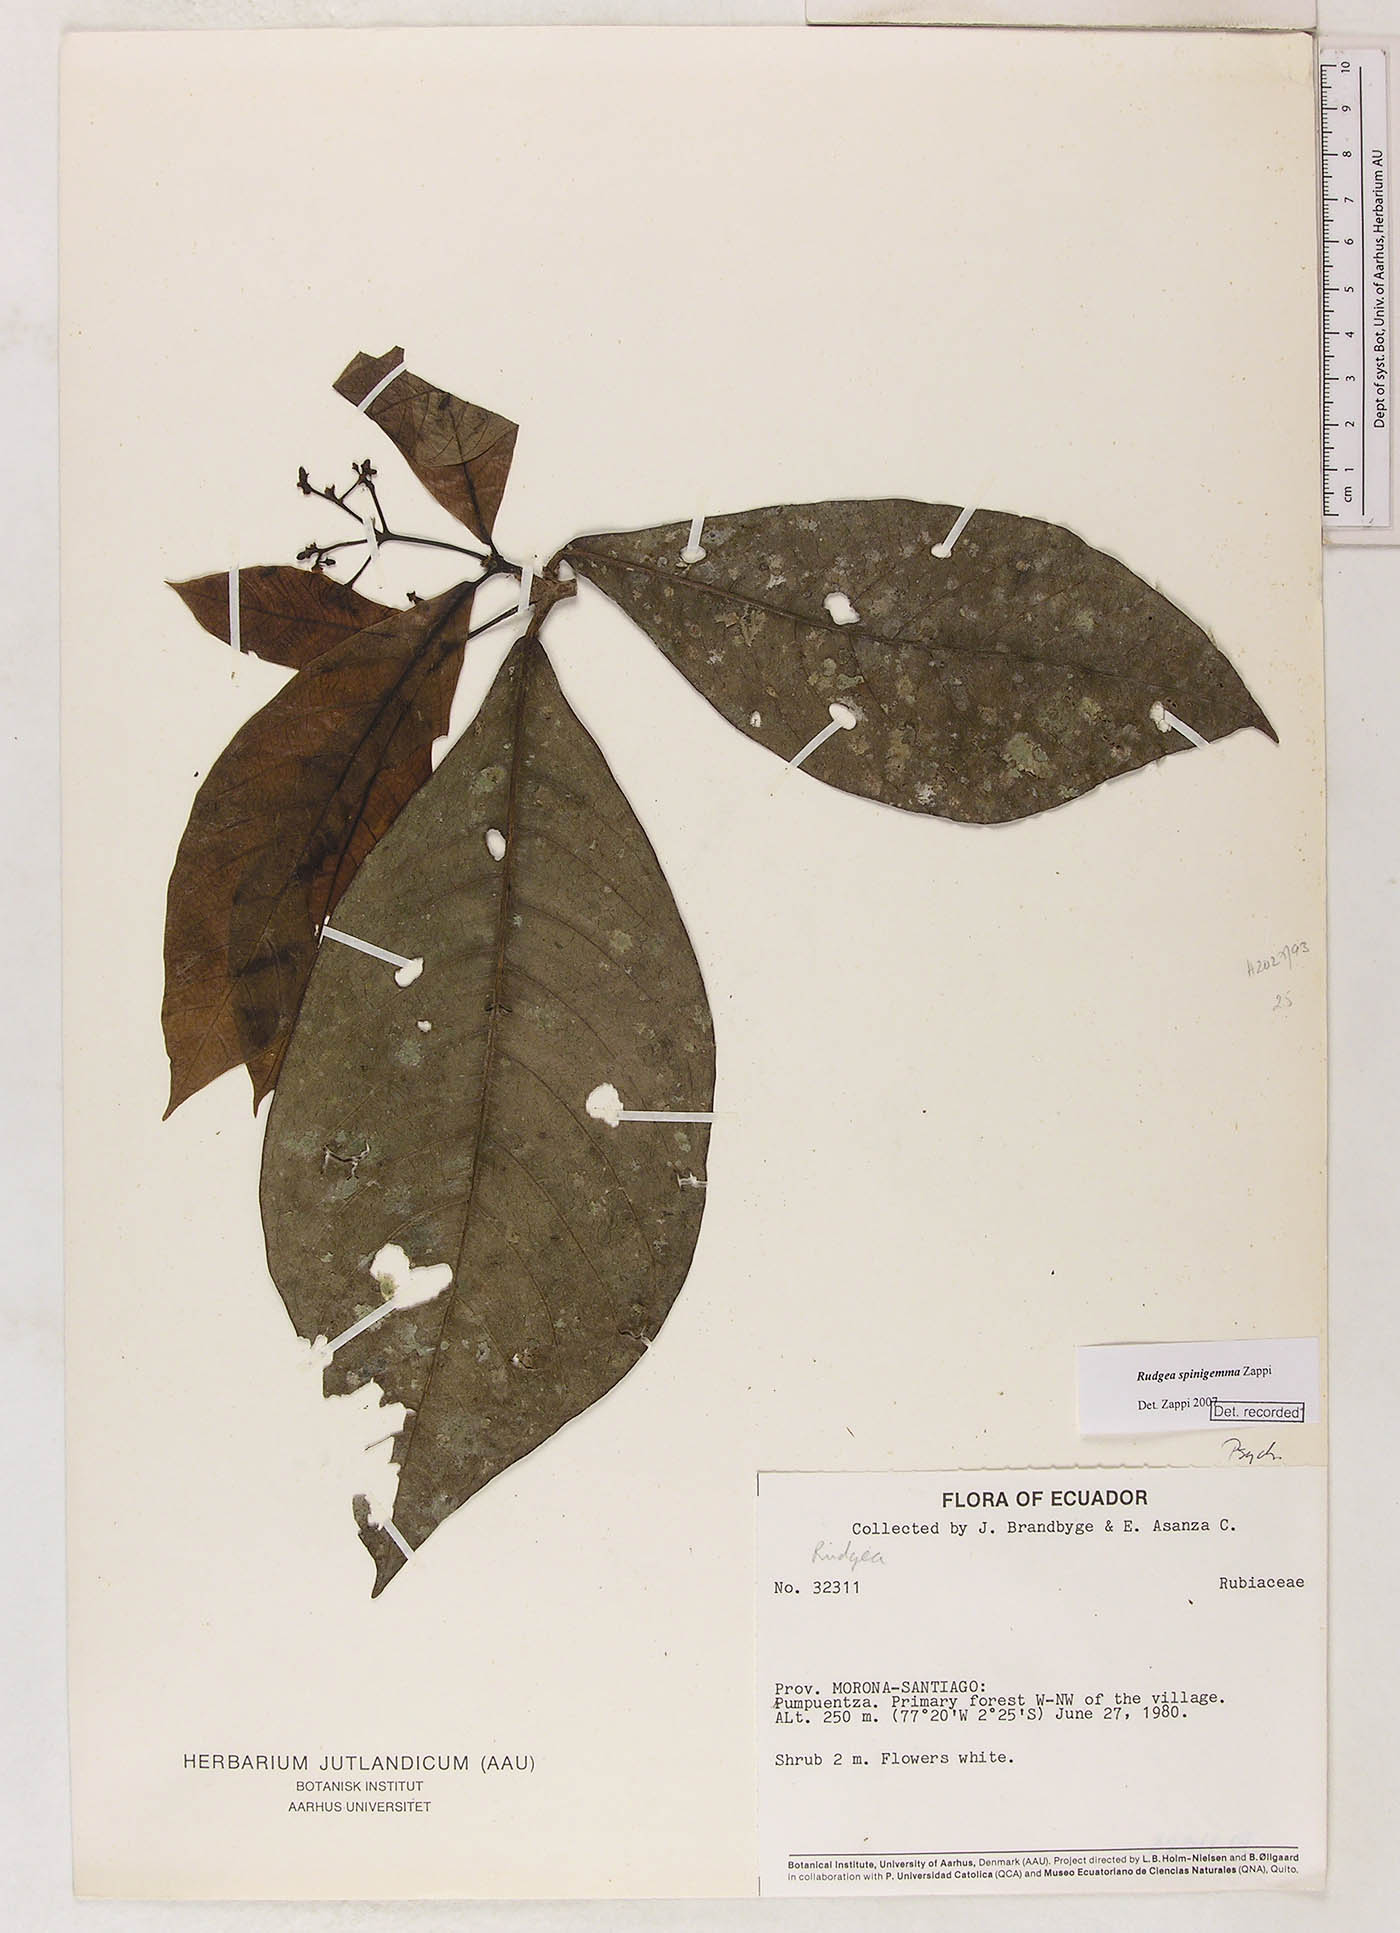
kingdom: Plantae
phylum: Tracheophyta
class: Magnoliopsida
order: Gentianales
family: Rubiaceae
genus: Rudgea
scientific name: Rudgea spinigemma
